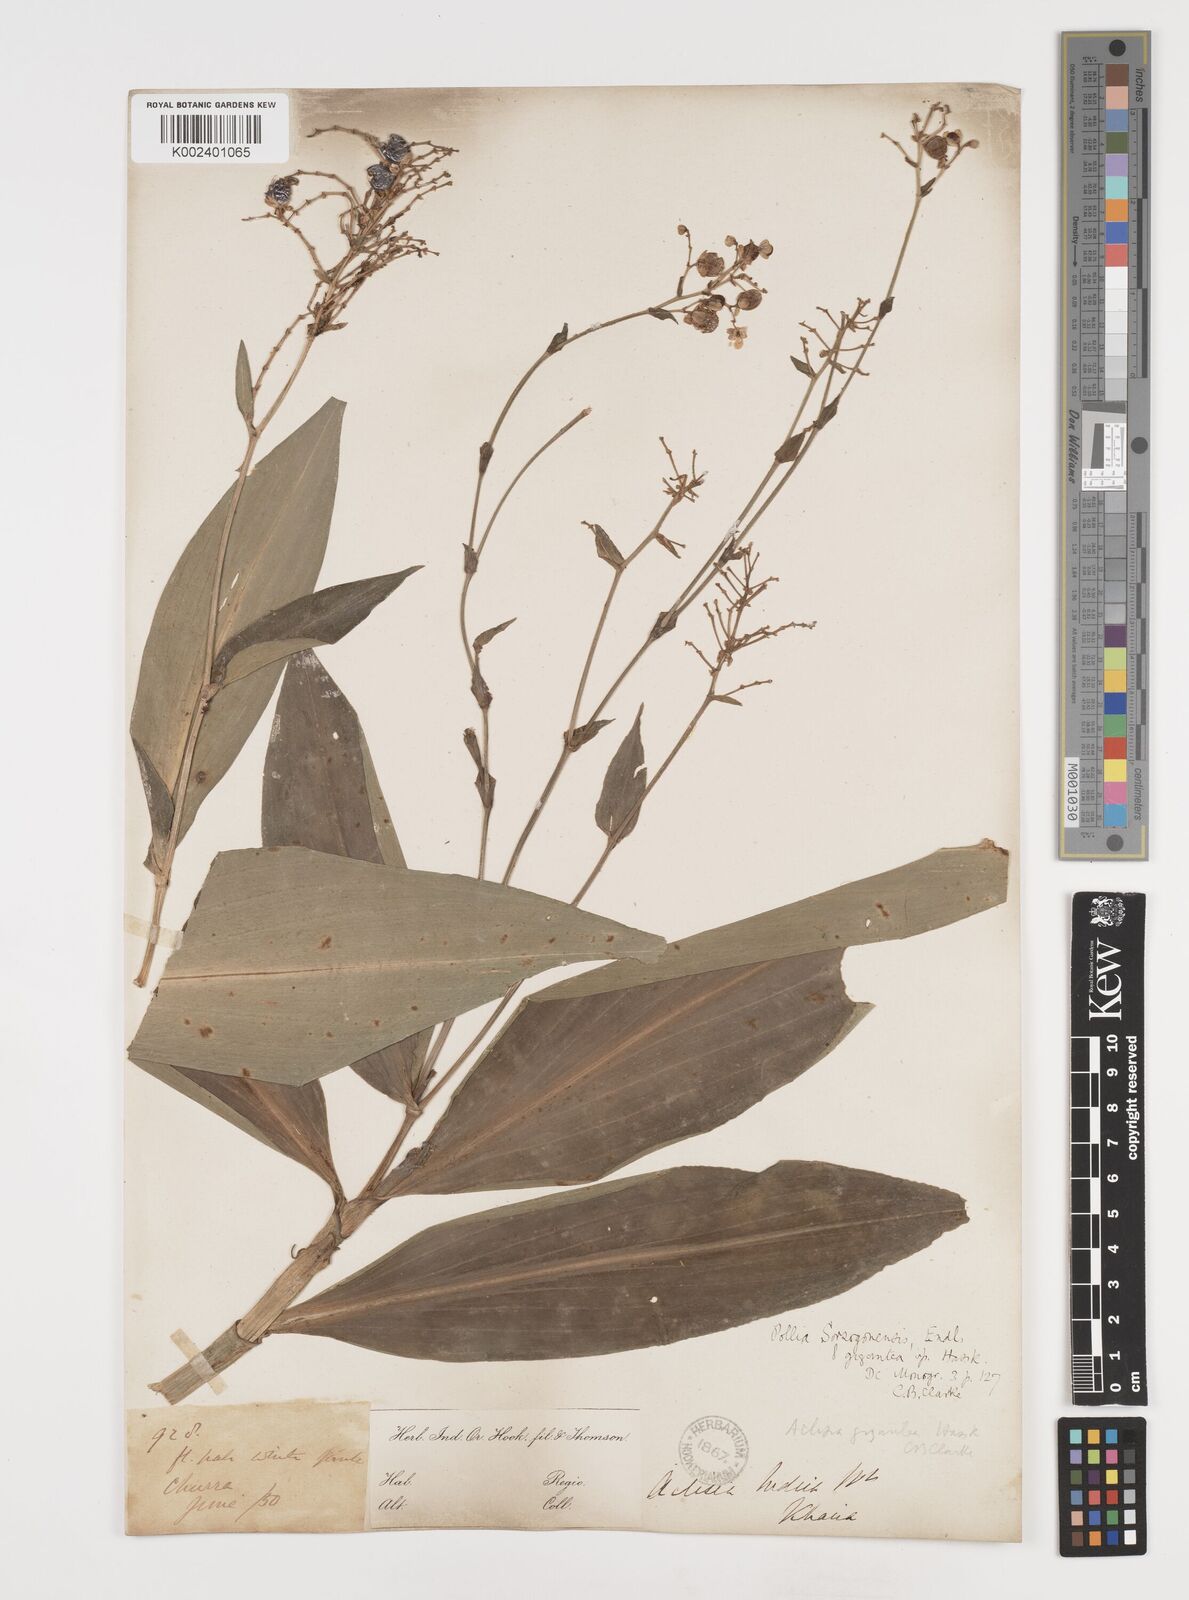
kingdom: Plantae
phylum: Tracheophyta
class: Liliopsida
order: Commelinales
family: Commelinaceae
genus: Pollia
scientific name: Pollia secundiflora
